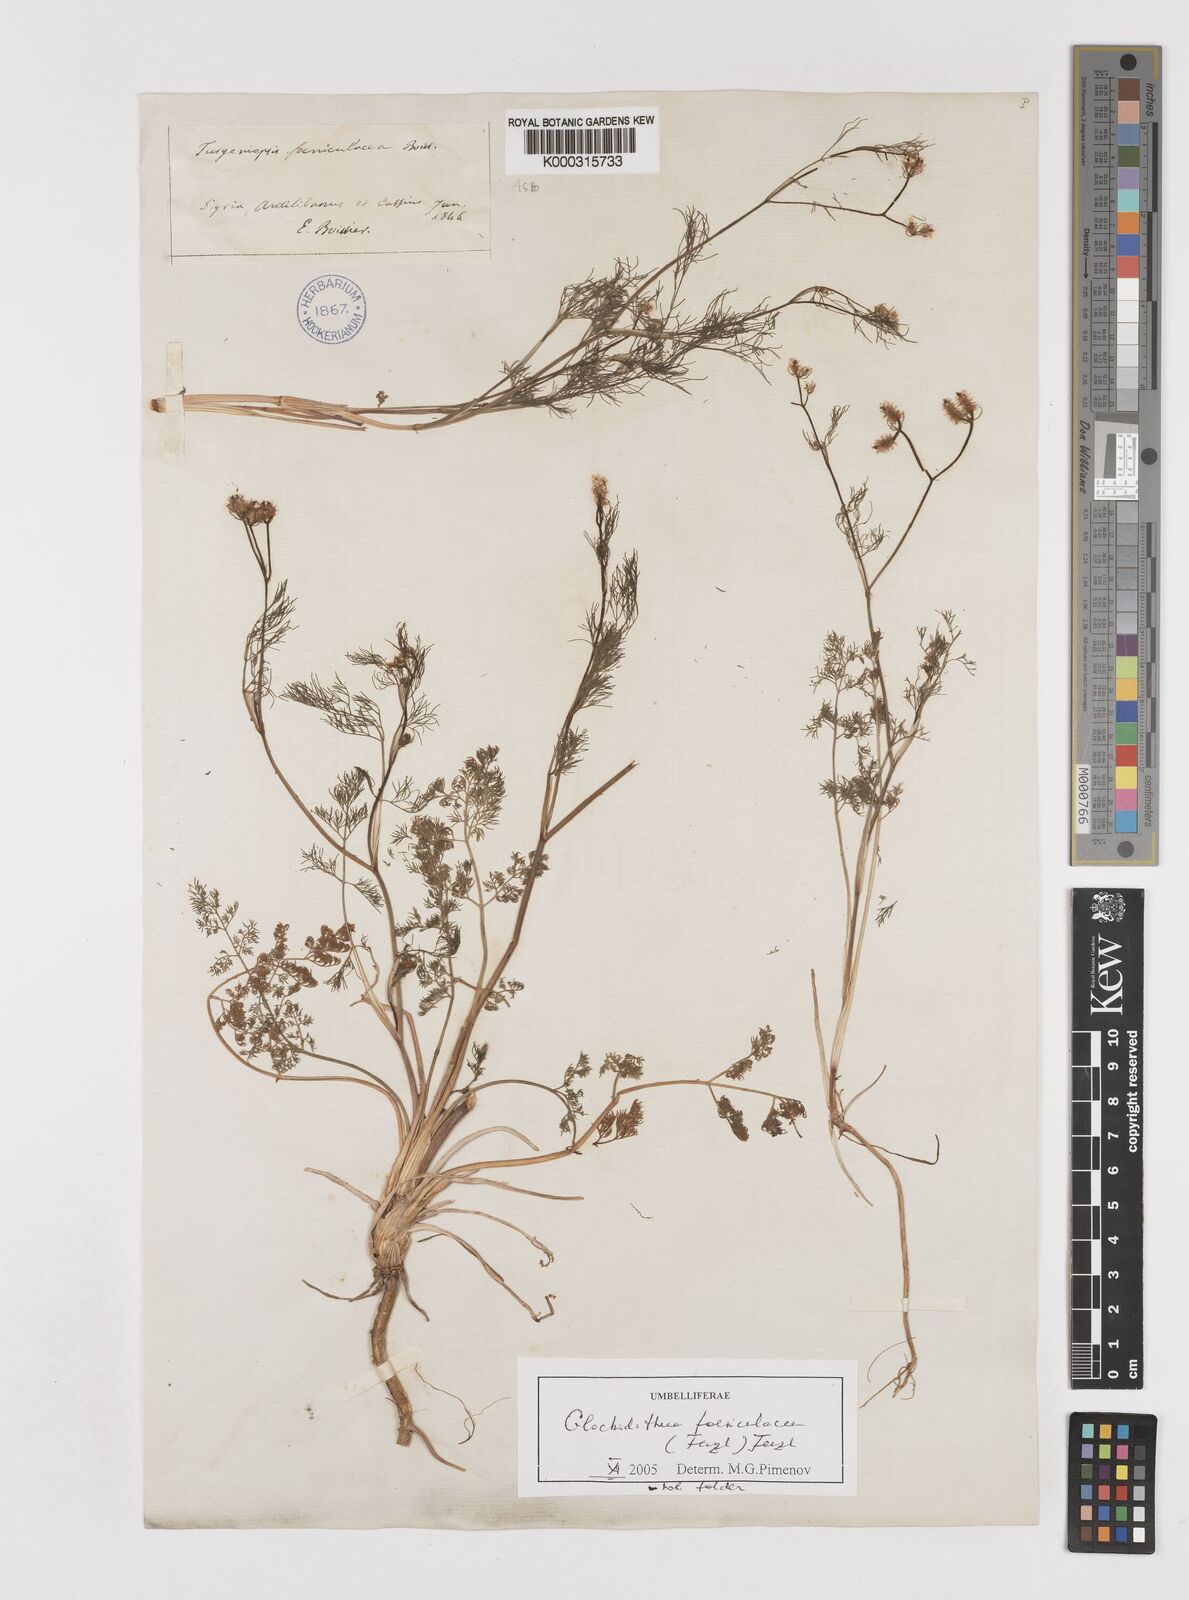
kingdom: Plantae
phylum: Tracheophyta
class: Magnoliopsida
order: Apiales
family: Apiaceae
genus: Turgeniopsis
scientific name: Turgeniopsis foeniculacea
